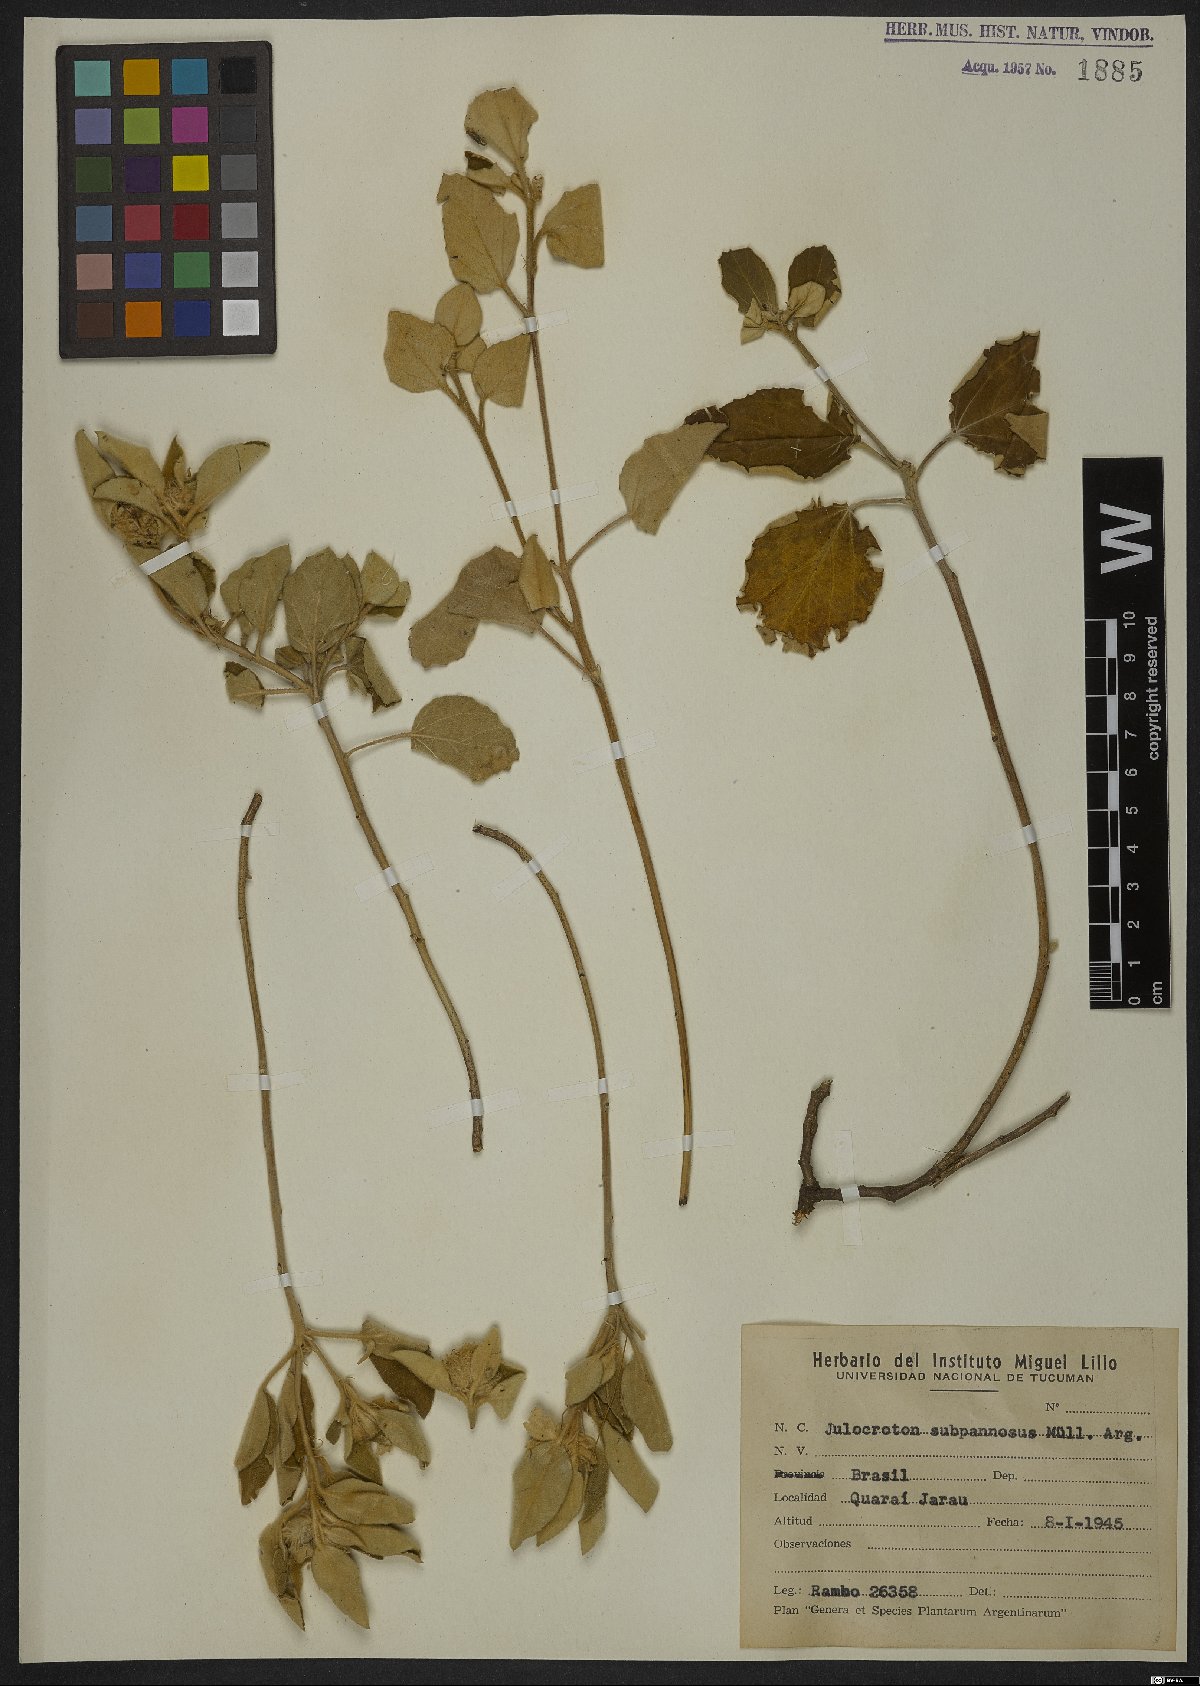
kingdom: Plantae
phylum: Tracheophyta
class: Magnoliopsida
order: Malpighiales
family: Euphorbiaceae
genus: Croton
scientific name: Croton subpannosus
